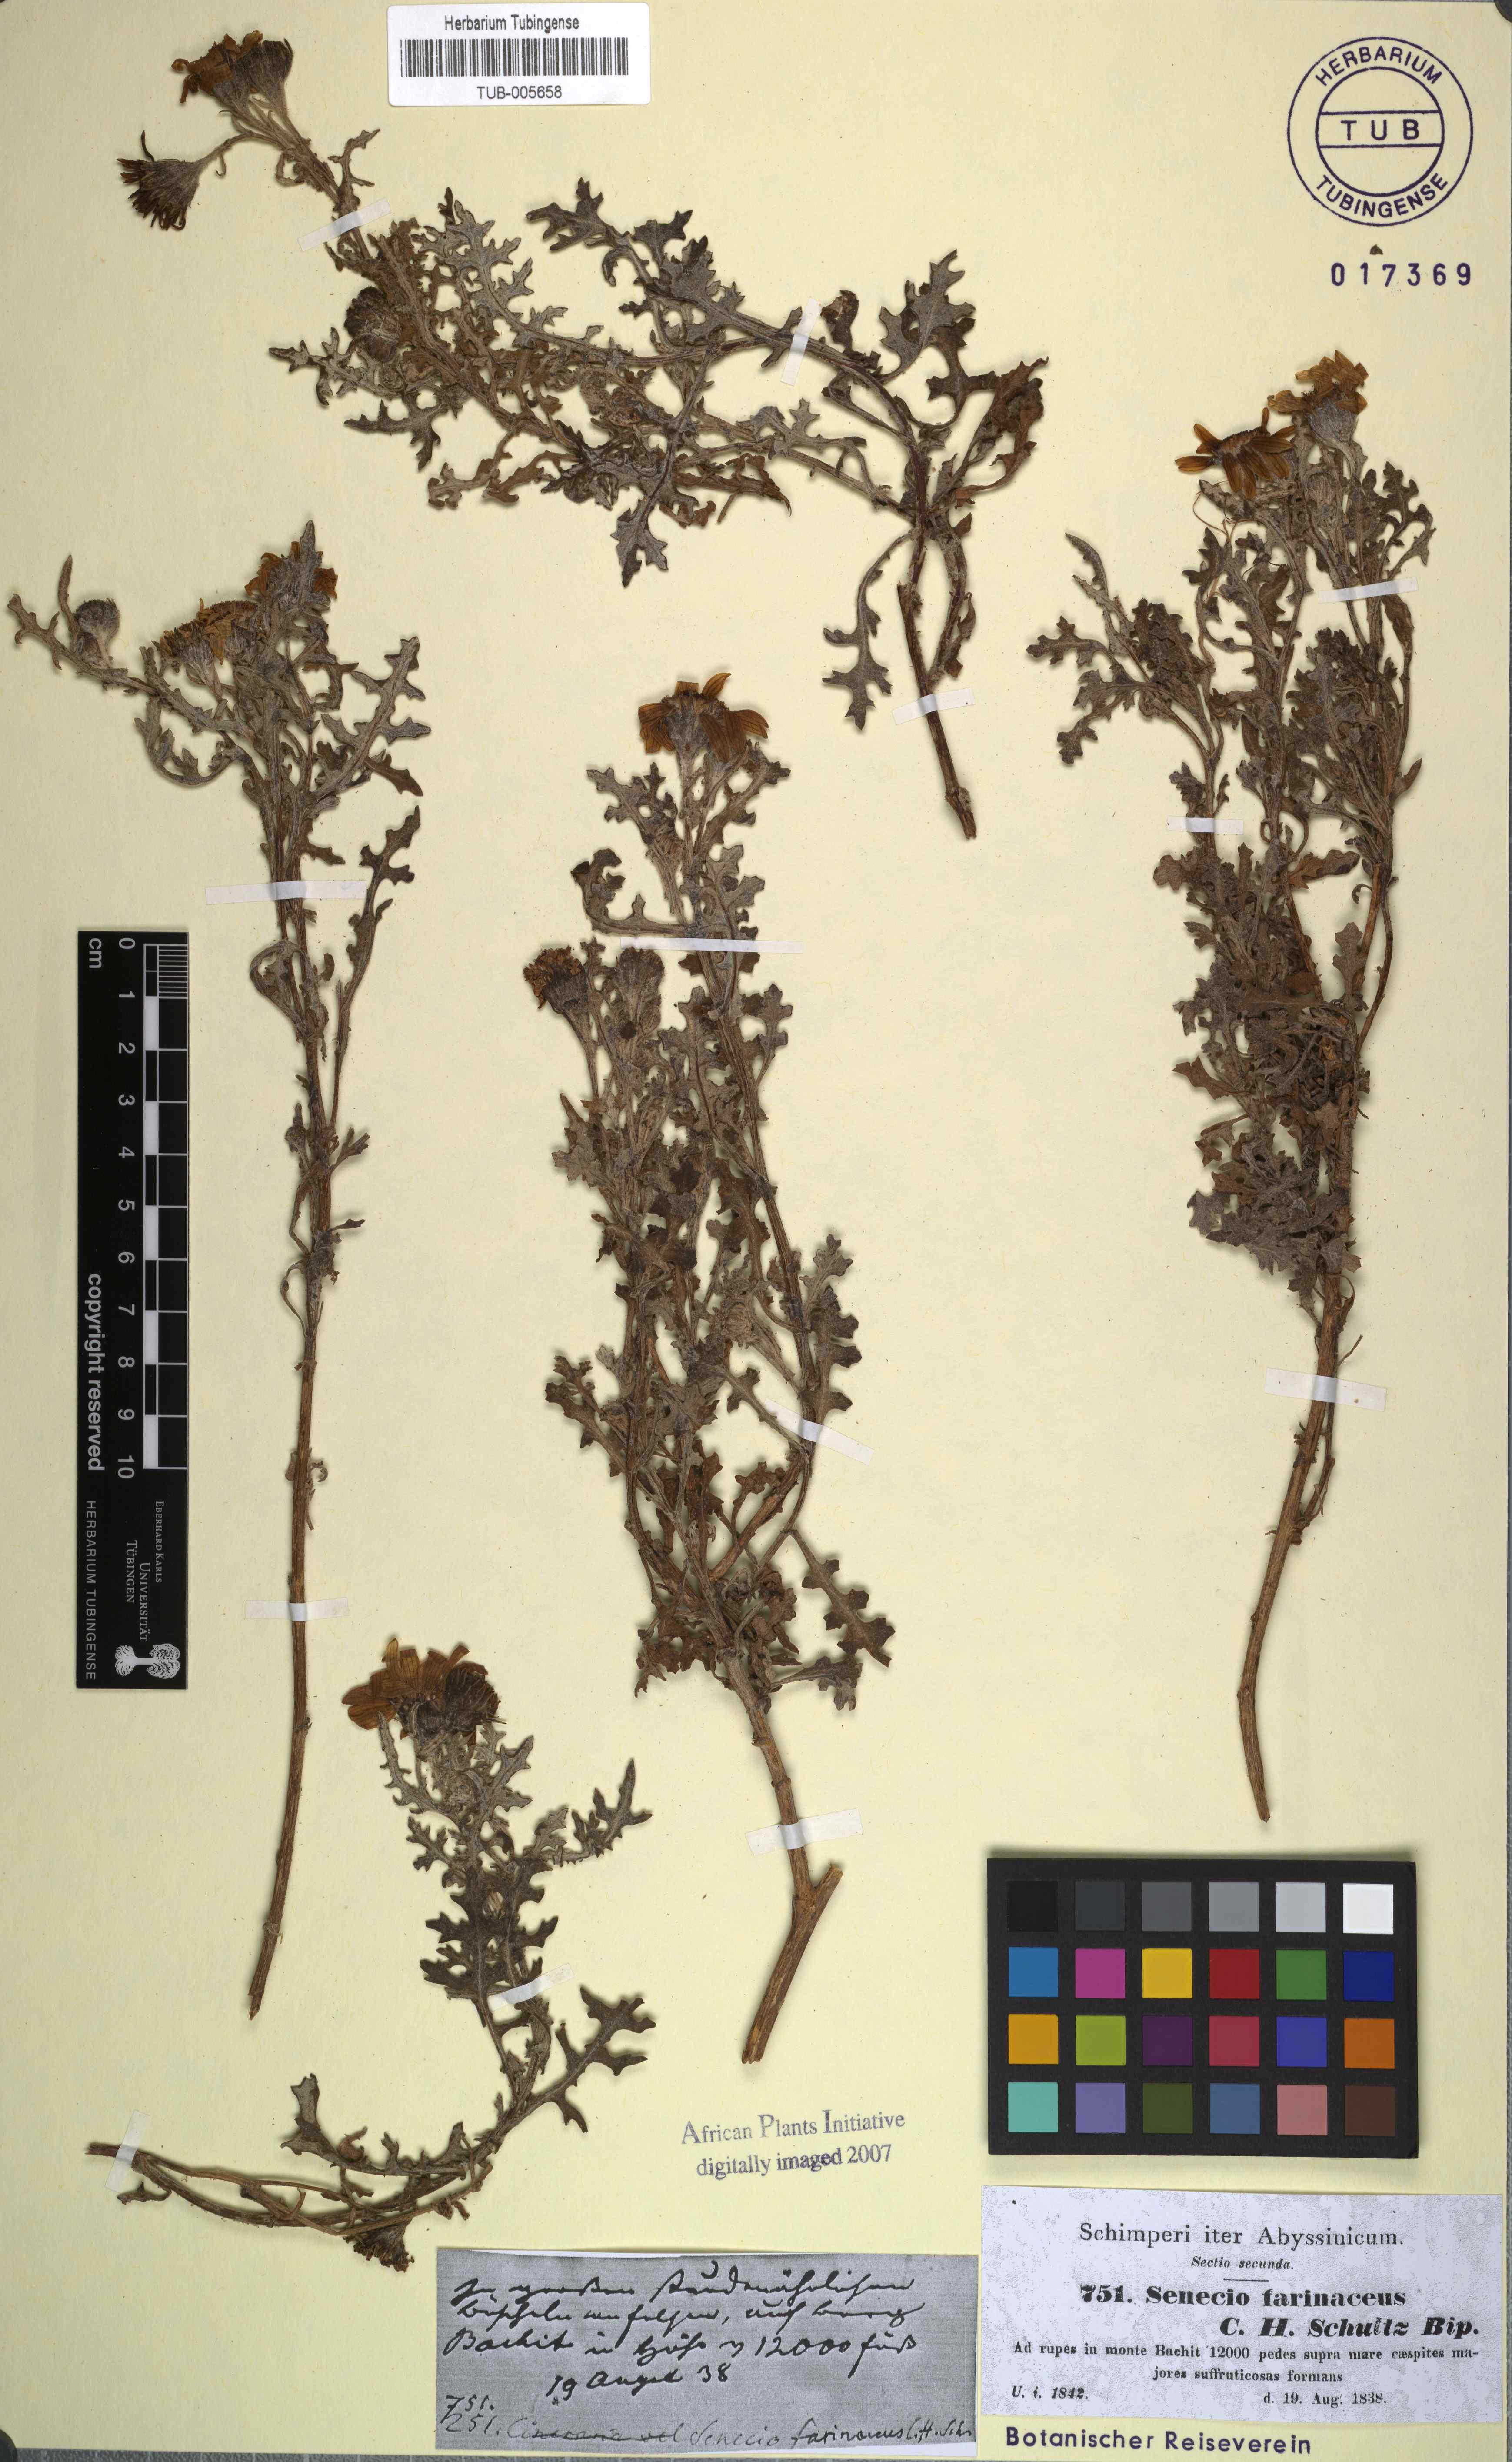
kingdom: Plantae
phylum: Tracheophyta
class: Magnoliopsida
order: Asterales
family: Asteraceae
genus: Senecio
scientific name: Senecio farinaceus
